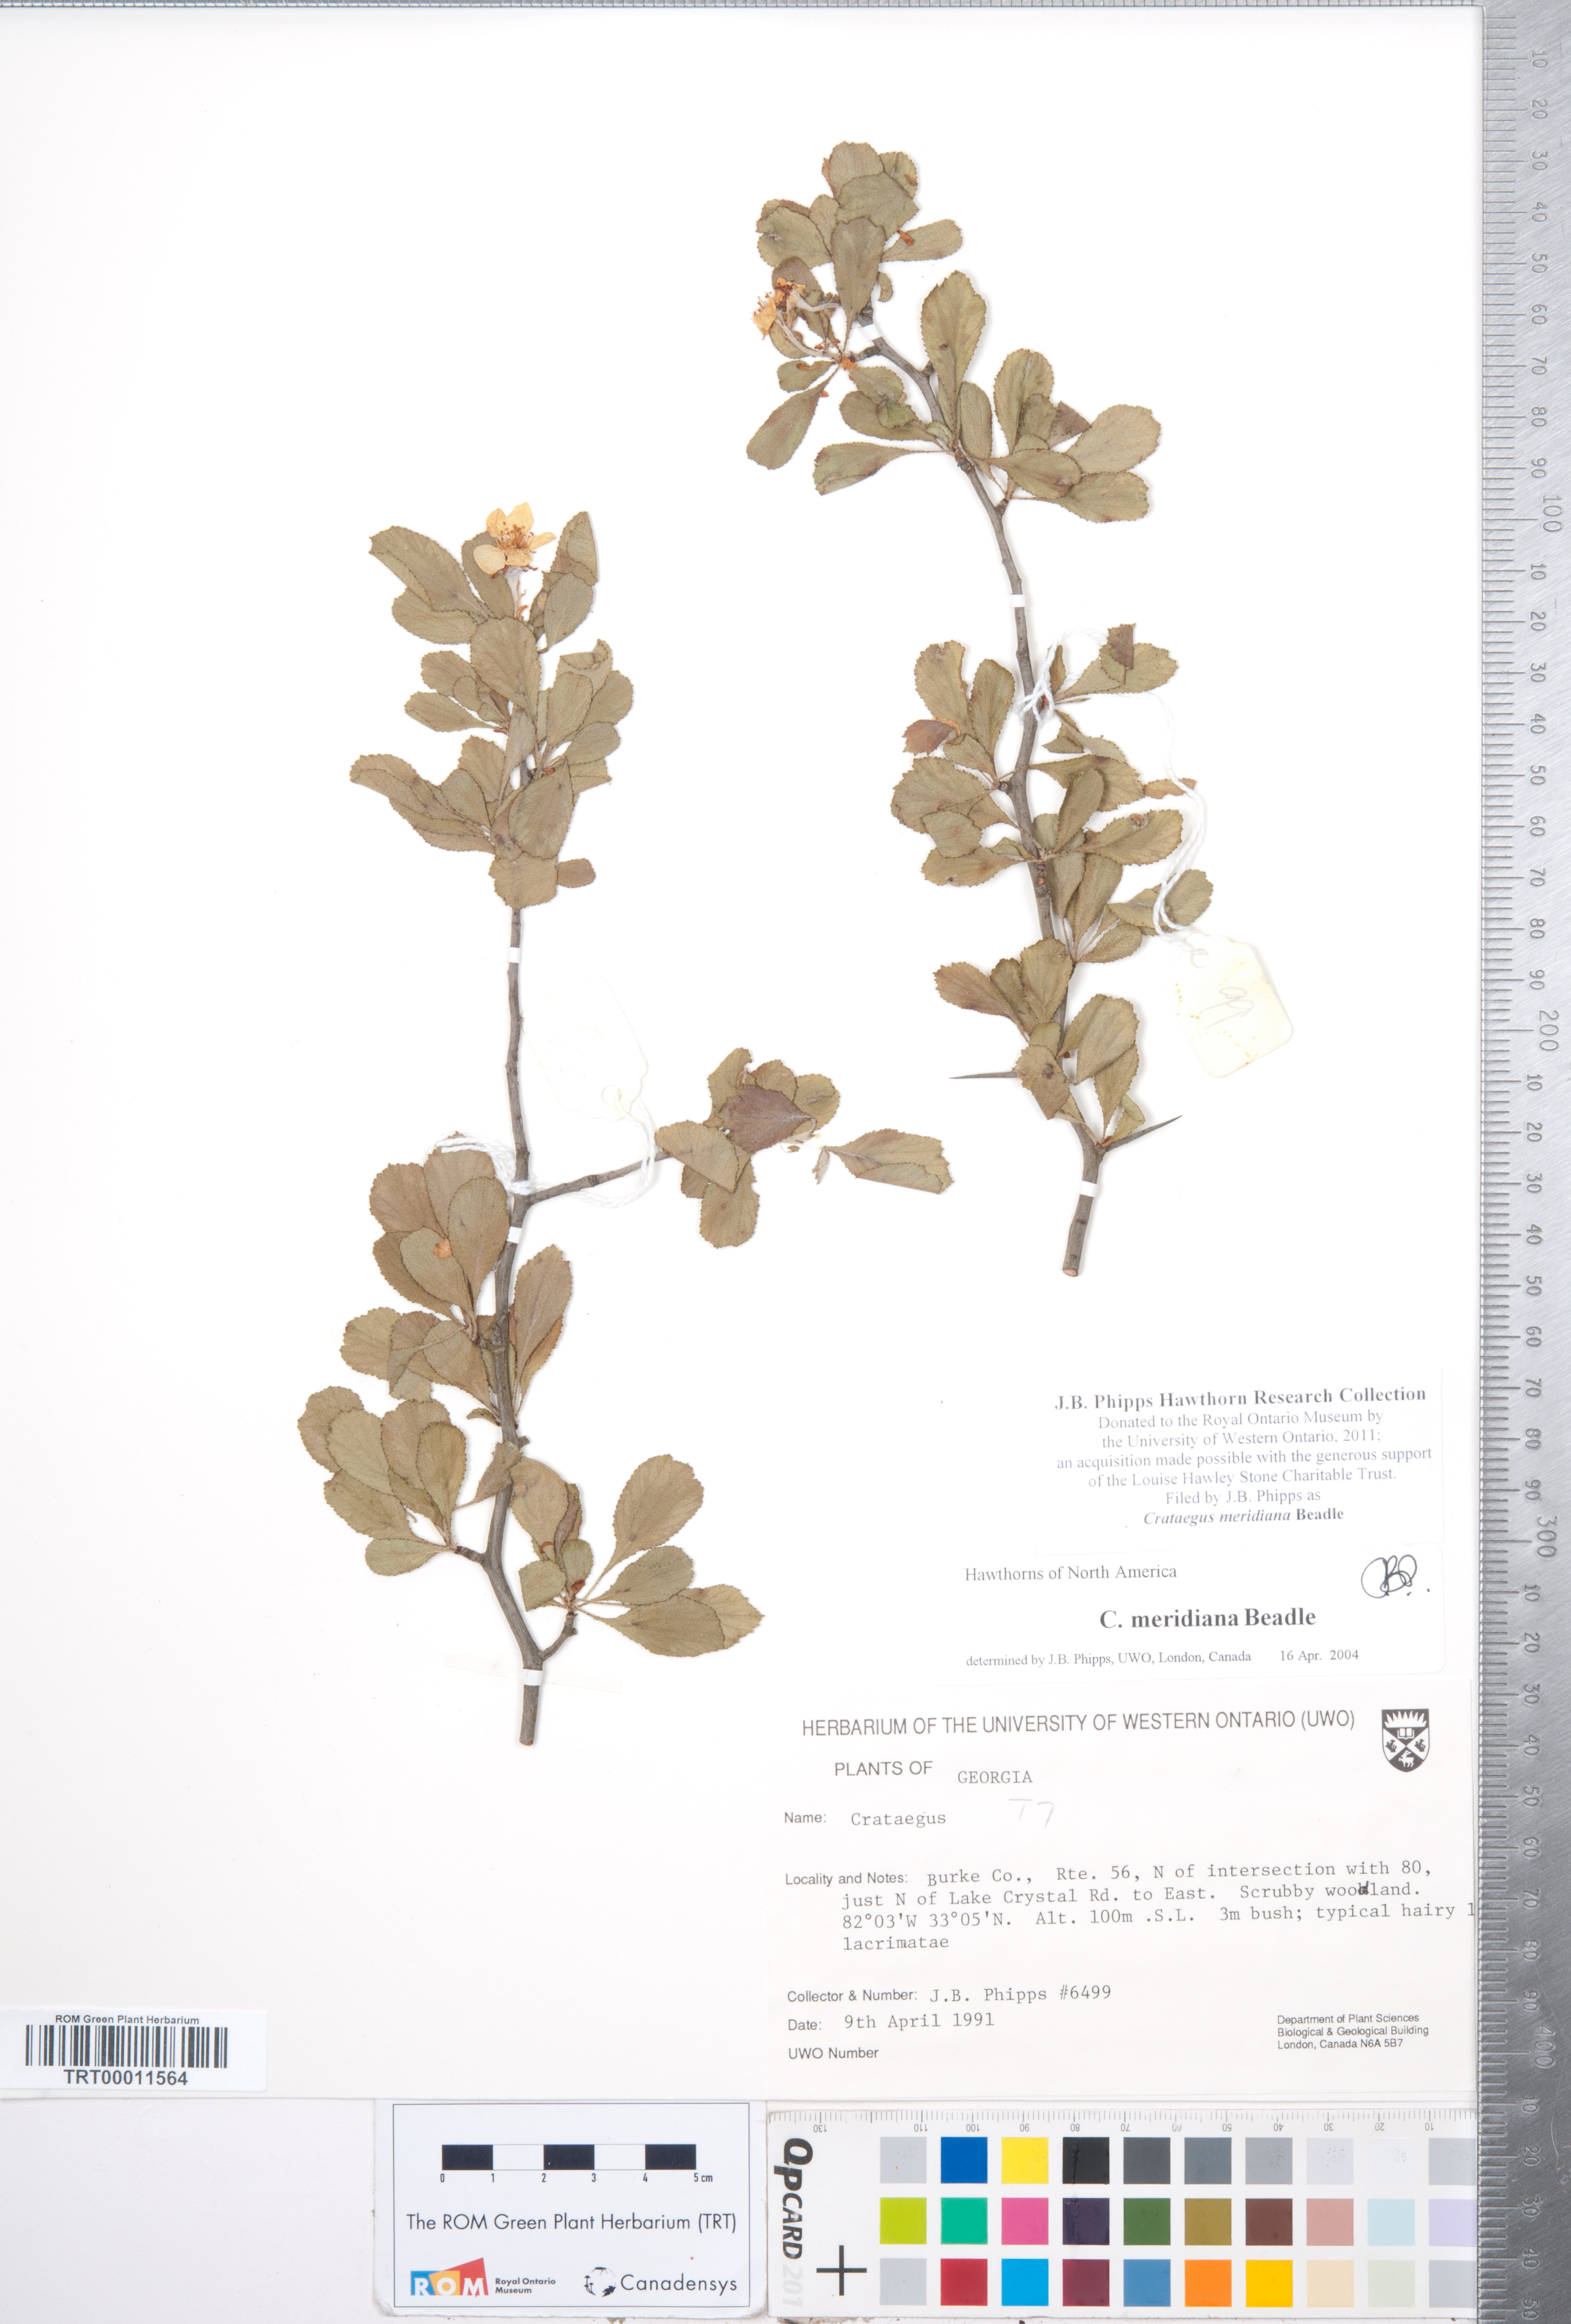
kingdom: Plantae
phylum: Tracheophyta
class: Magnoliopsida
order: Rosales
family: Rosaceae
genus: Crataegus
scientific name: Crataegus lassa
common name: Florida hawthorn
